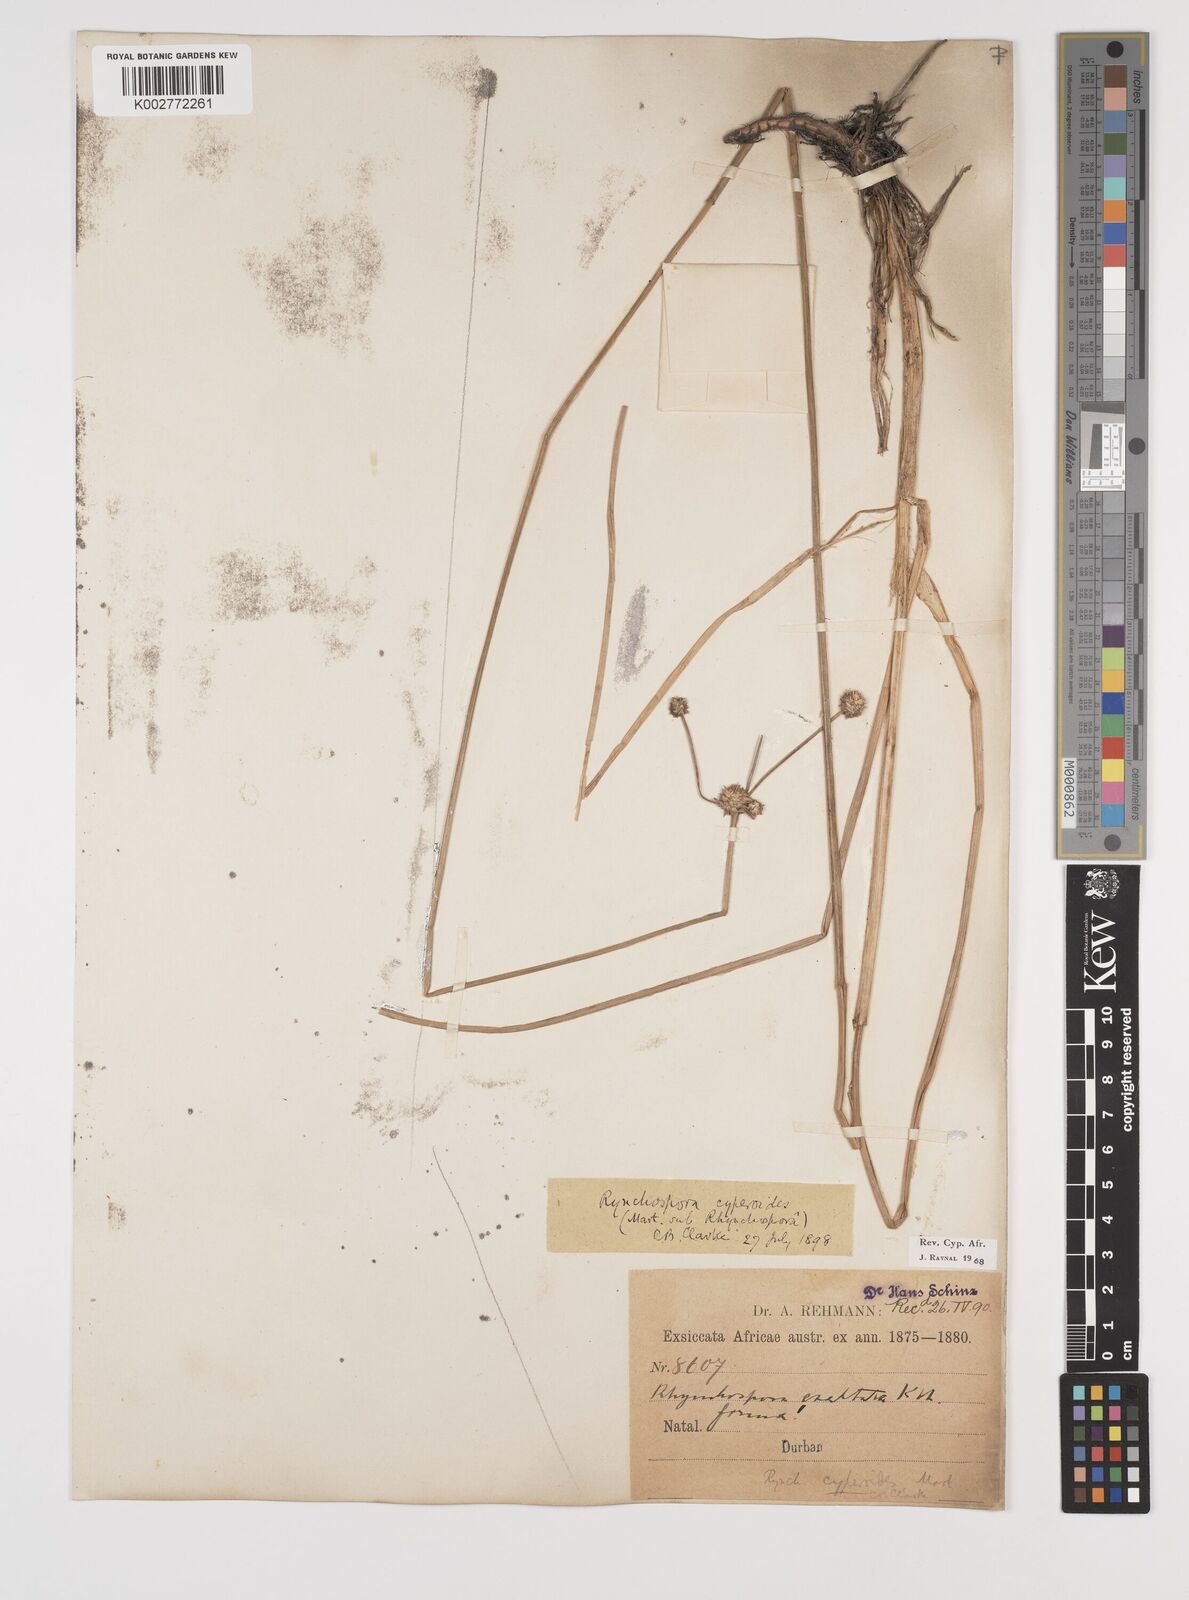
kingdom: Plantae
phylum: Tracheophyta
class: Liliopsida
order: Poales
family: Cyperaceae
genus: Rhynchospora
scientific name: Rhynchospora holoschoenoides
